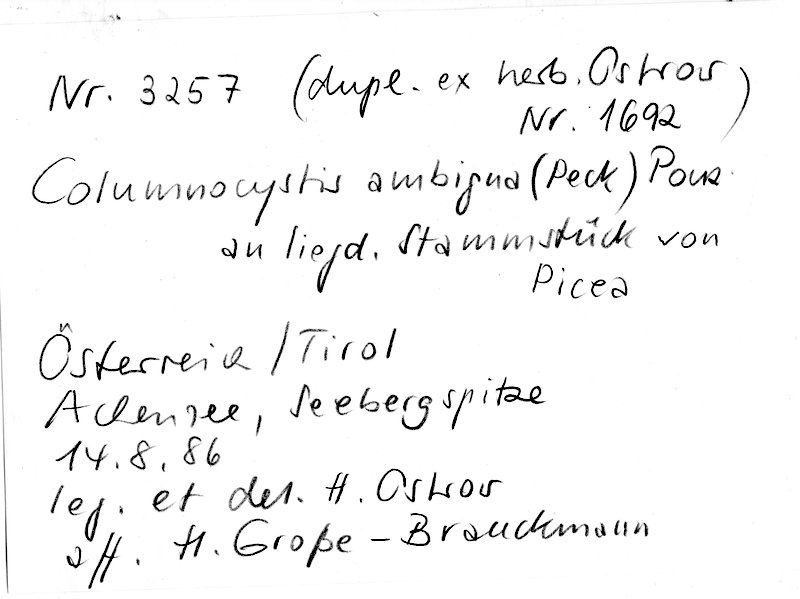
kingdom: Fungi
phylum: Basidiomycota
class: Agaricomycetes
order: Gloeophyllales
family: Gloeophyllaceae
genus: Veluticeps
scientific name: Veluticeps ambigua
